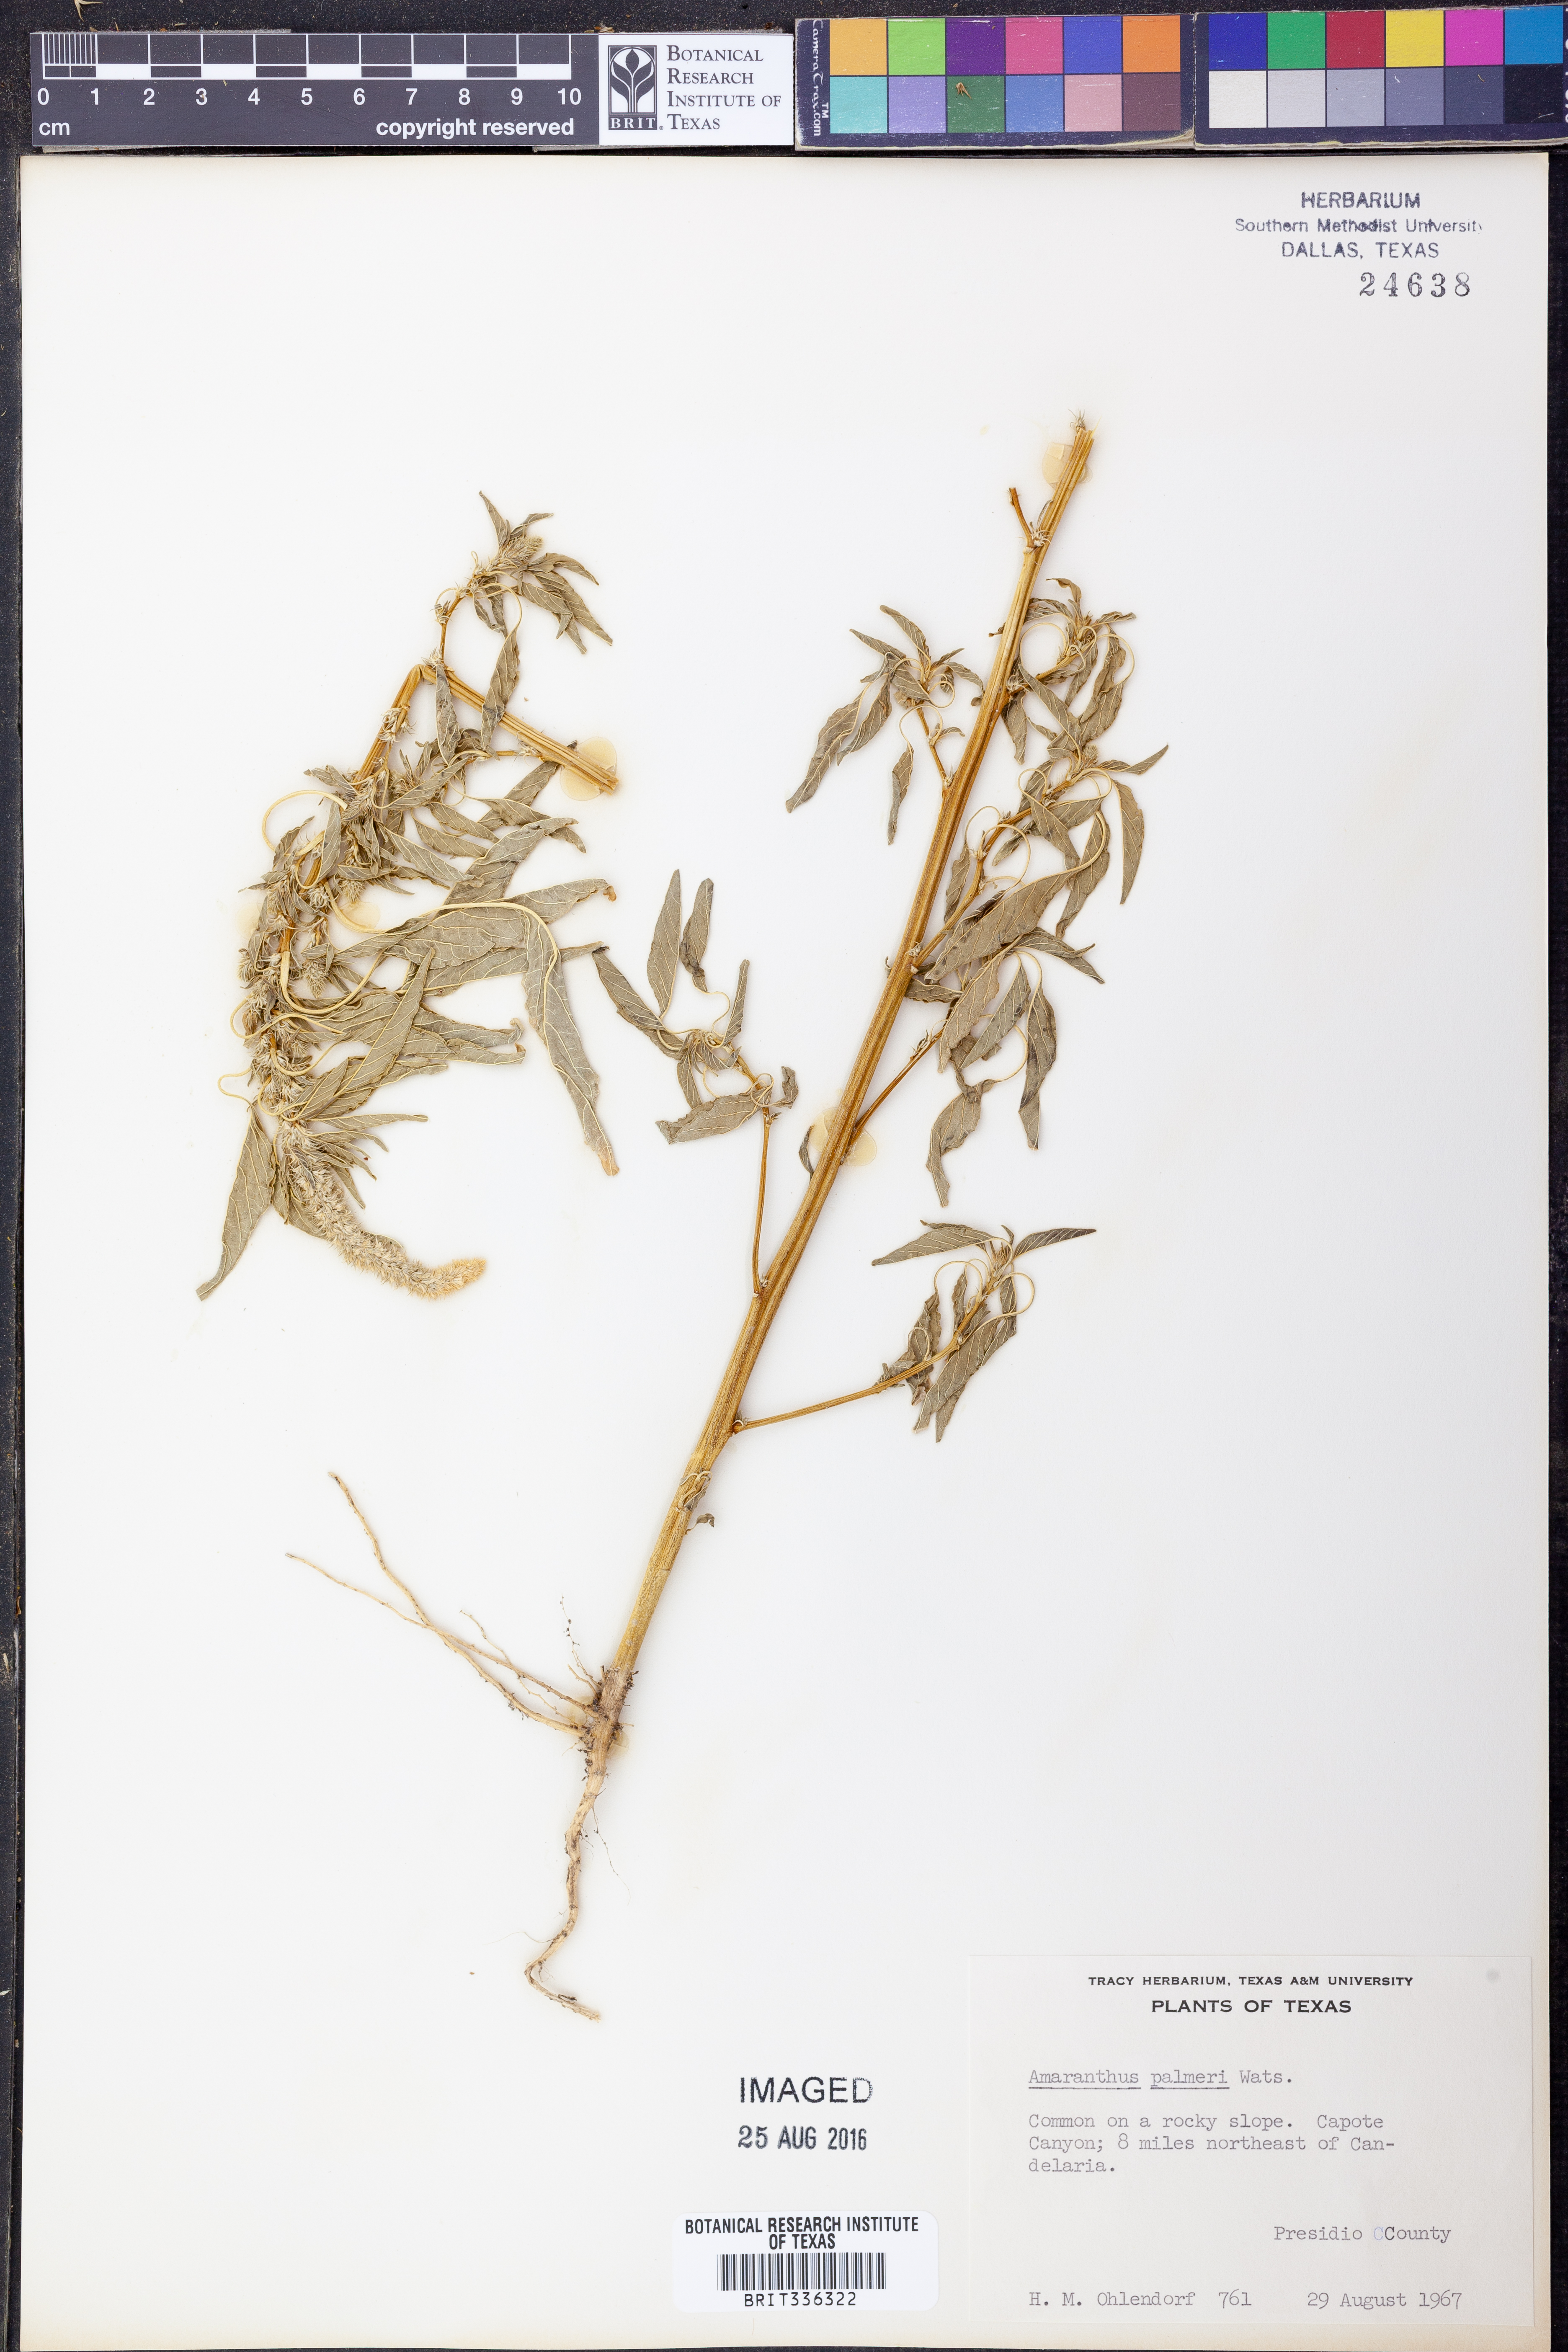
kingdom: Plantae
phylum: Tracheophyta
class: Magnoliopsida
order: Caryophyllales
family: Amaranthaceae
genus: Amaranthus
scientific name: Amaranthus palmeri
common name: Dioecious amaranth
